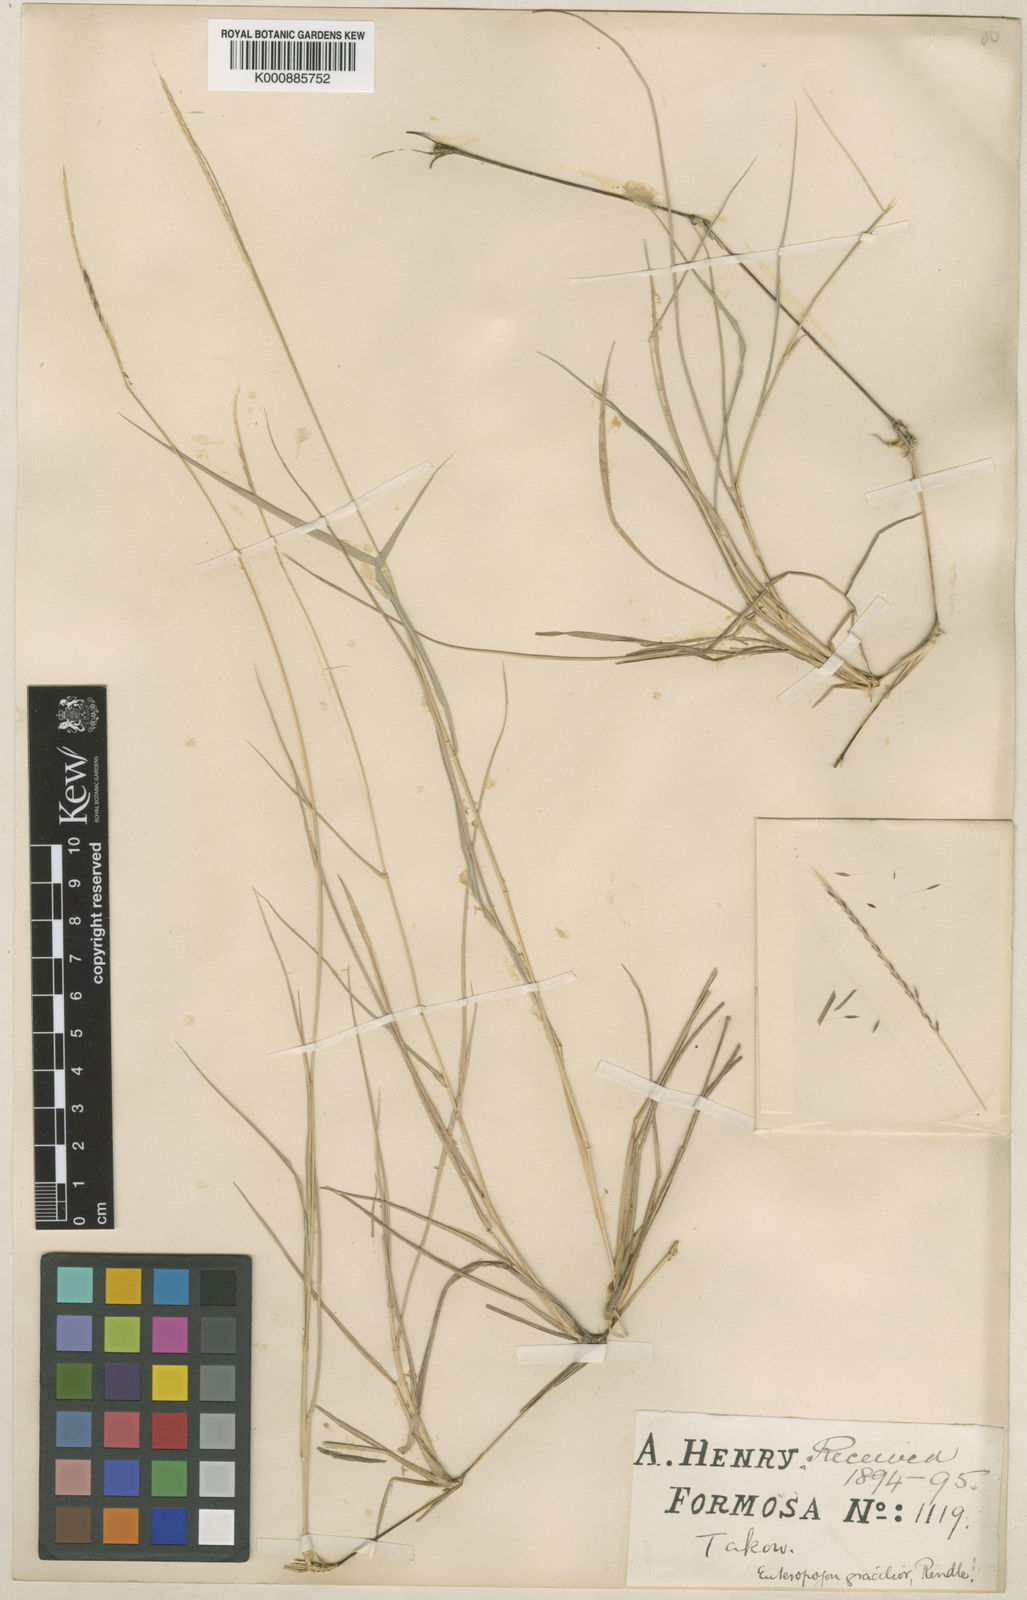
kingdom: Plantae
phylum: Tracheophyta
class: Liliopsida
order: Poales
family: Poaceae
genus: Enteropogon
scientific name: Enteropogon unispiceus
